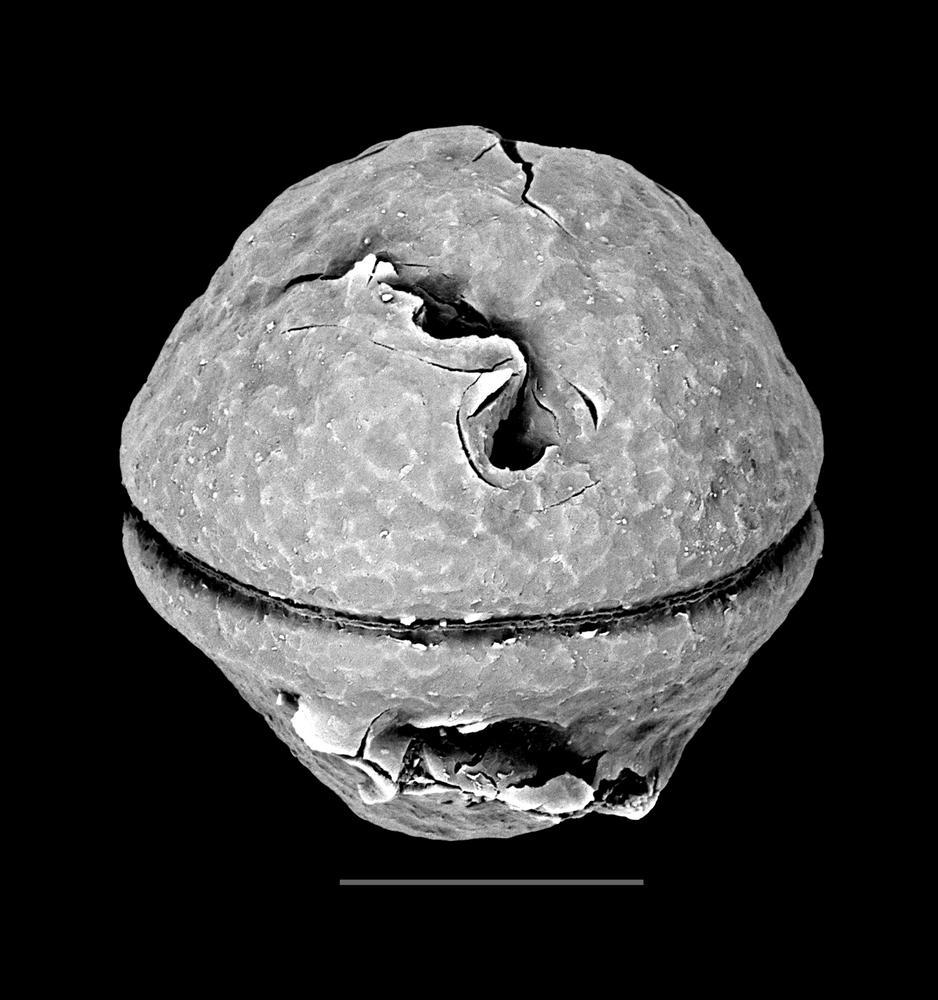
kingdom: Animalia
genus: Vikisphaera
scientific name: Vikisphaera
